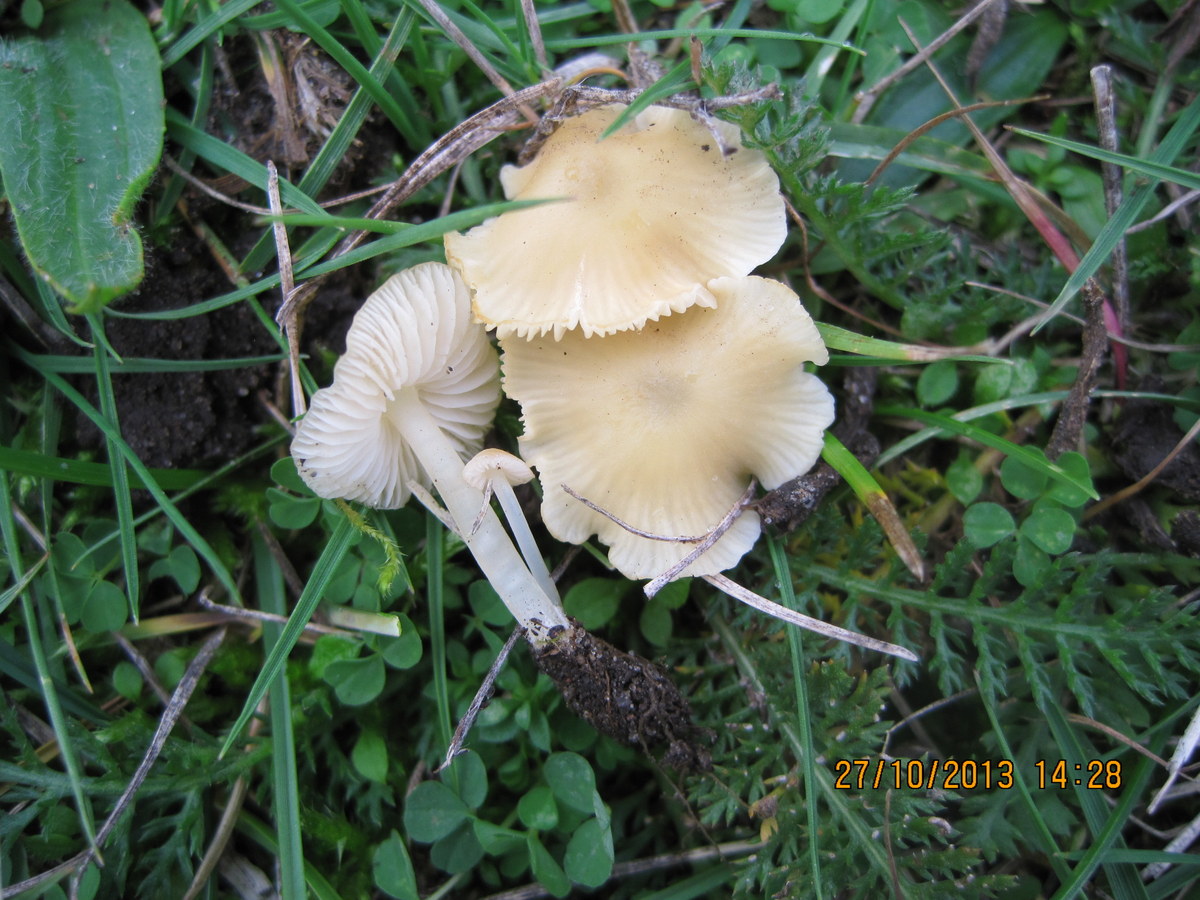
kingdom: Fungi
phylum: Basidiomycota
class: Agaricomycetes
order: Agaricales
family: Mycenaceae
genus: Atheniella
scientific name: Atheniella flavoalba
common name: gulhvid huesvamp
